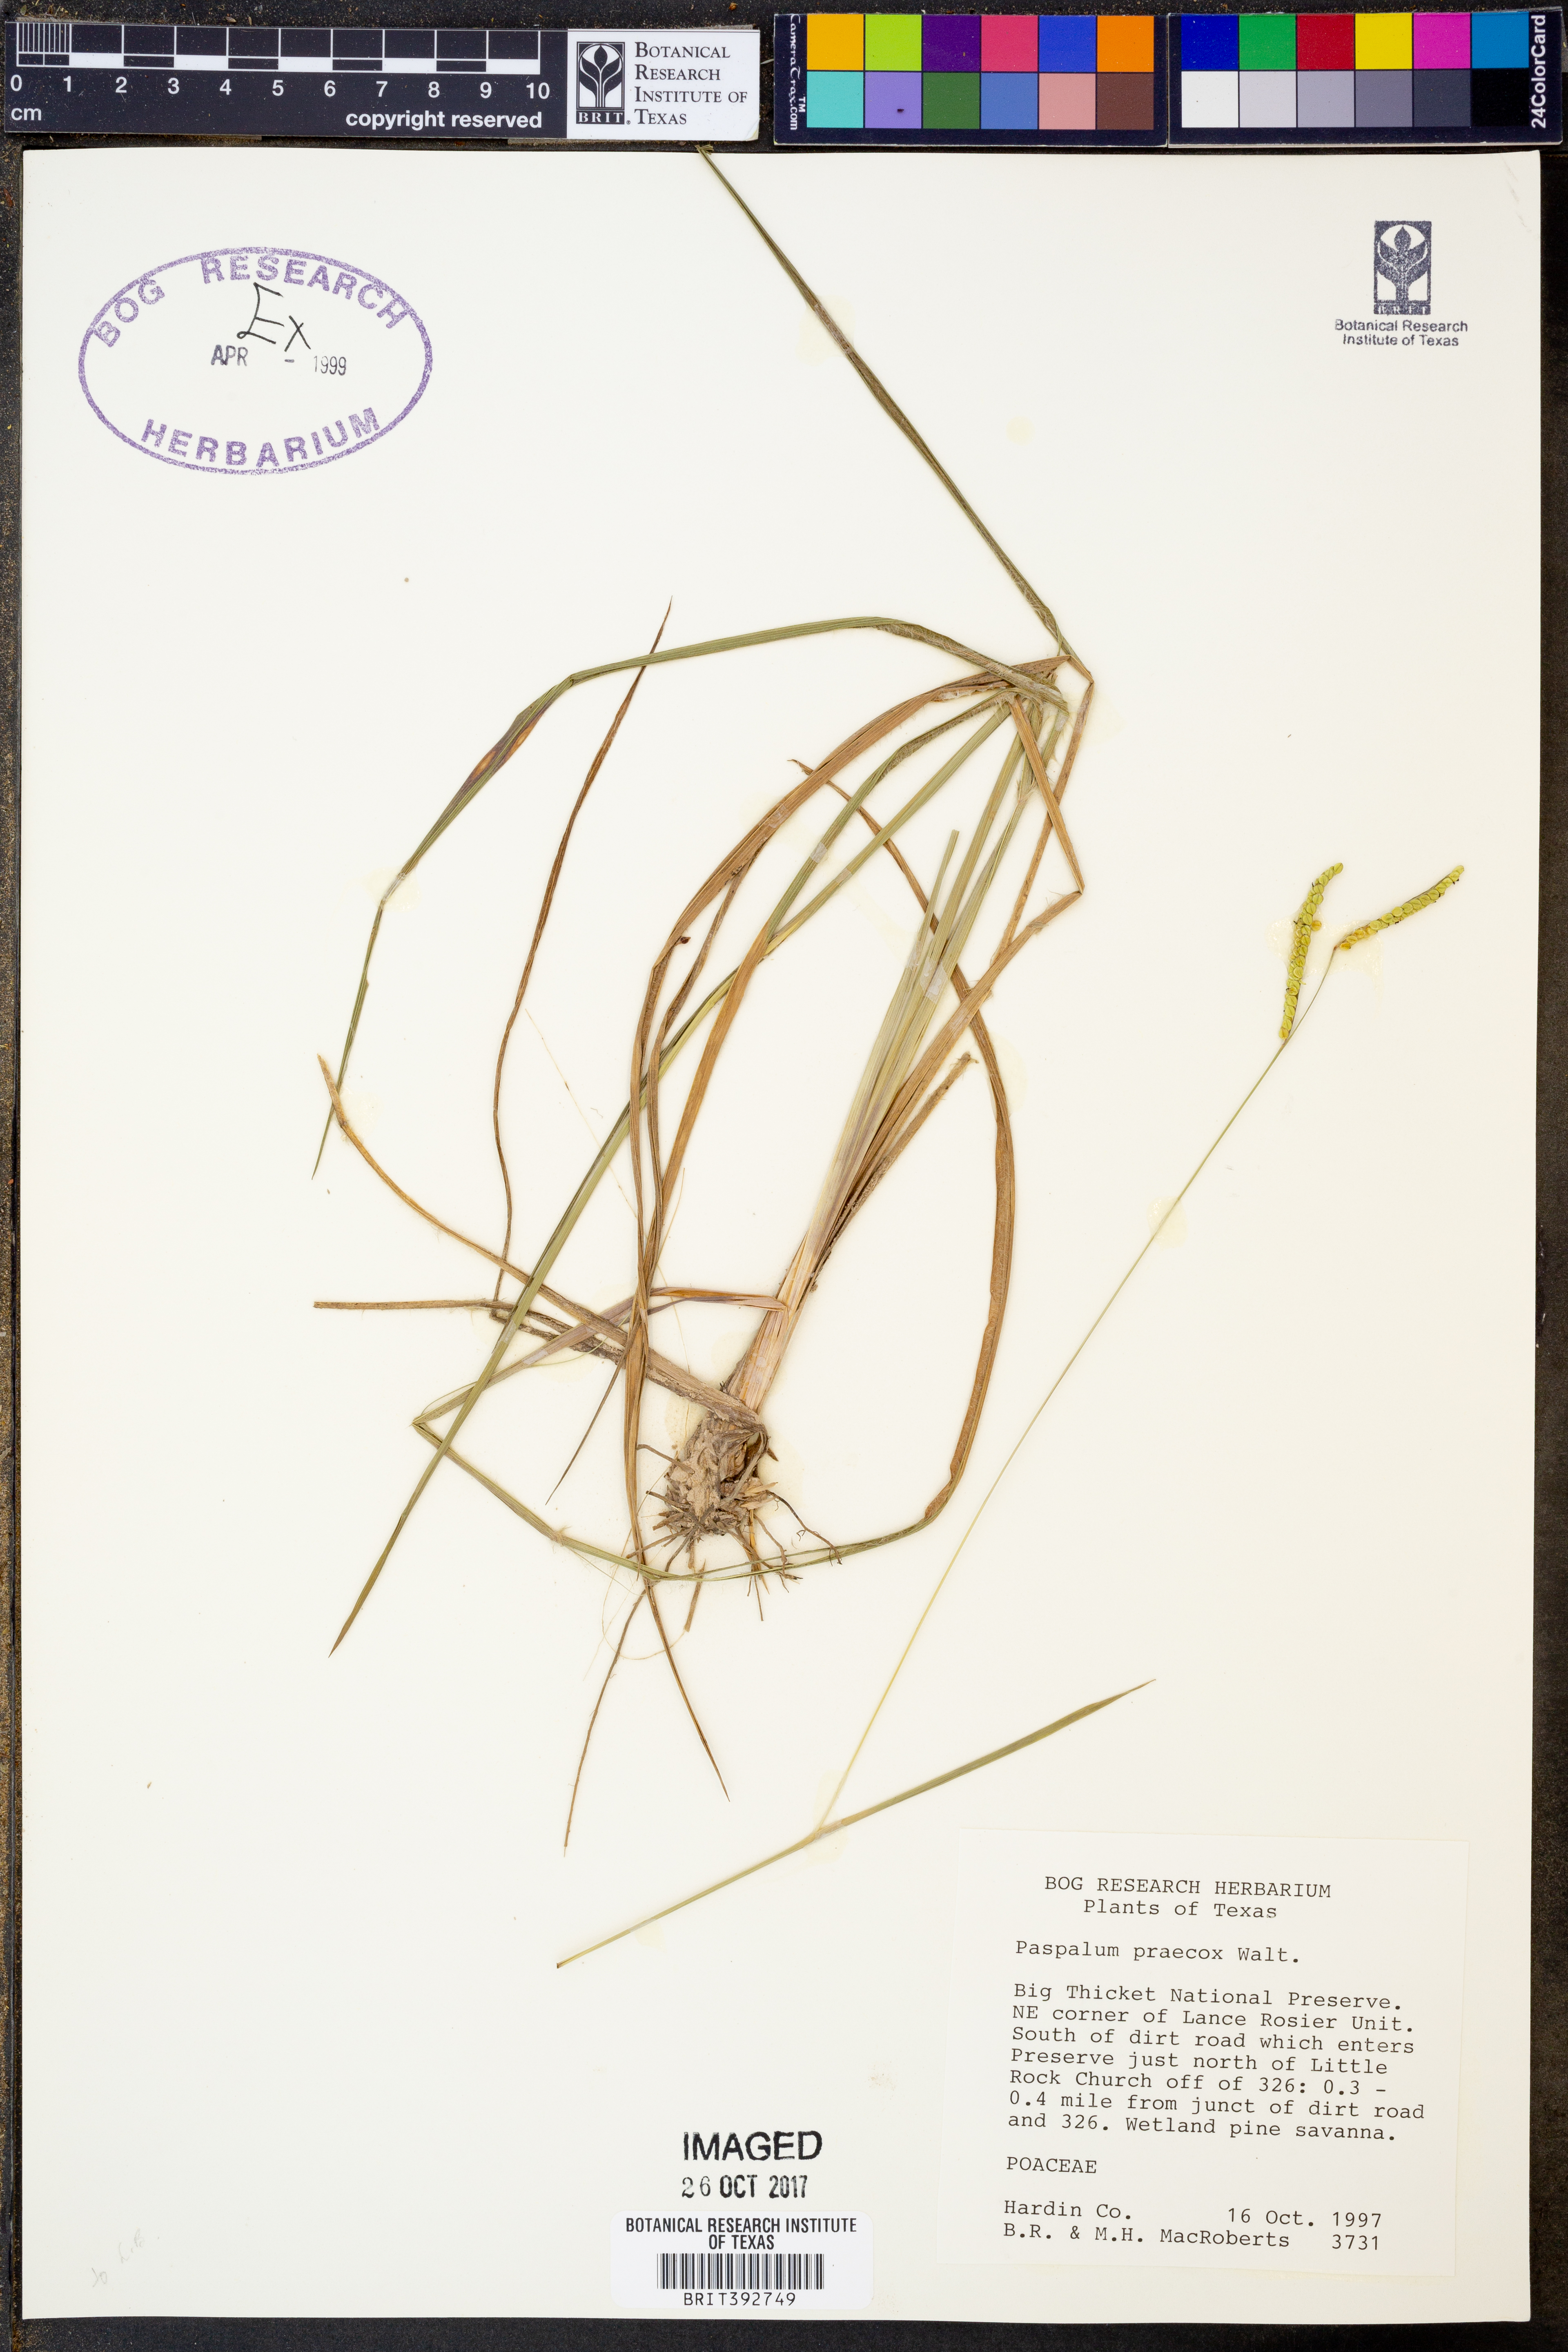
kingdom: Plantae
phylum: Tracheophyta
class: Liliopsida
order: Poales
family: Poaceae
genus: Paspalum
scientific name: Paspalum praecox
